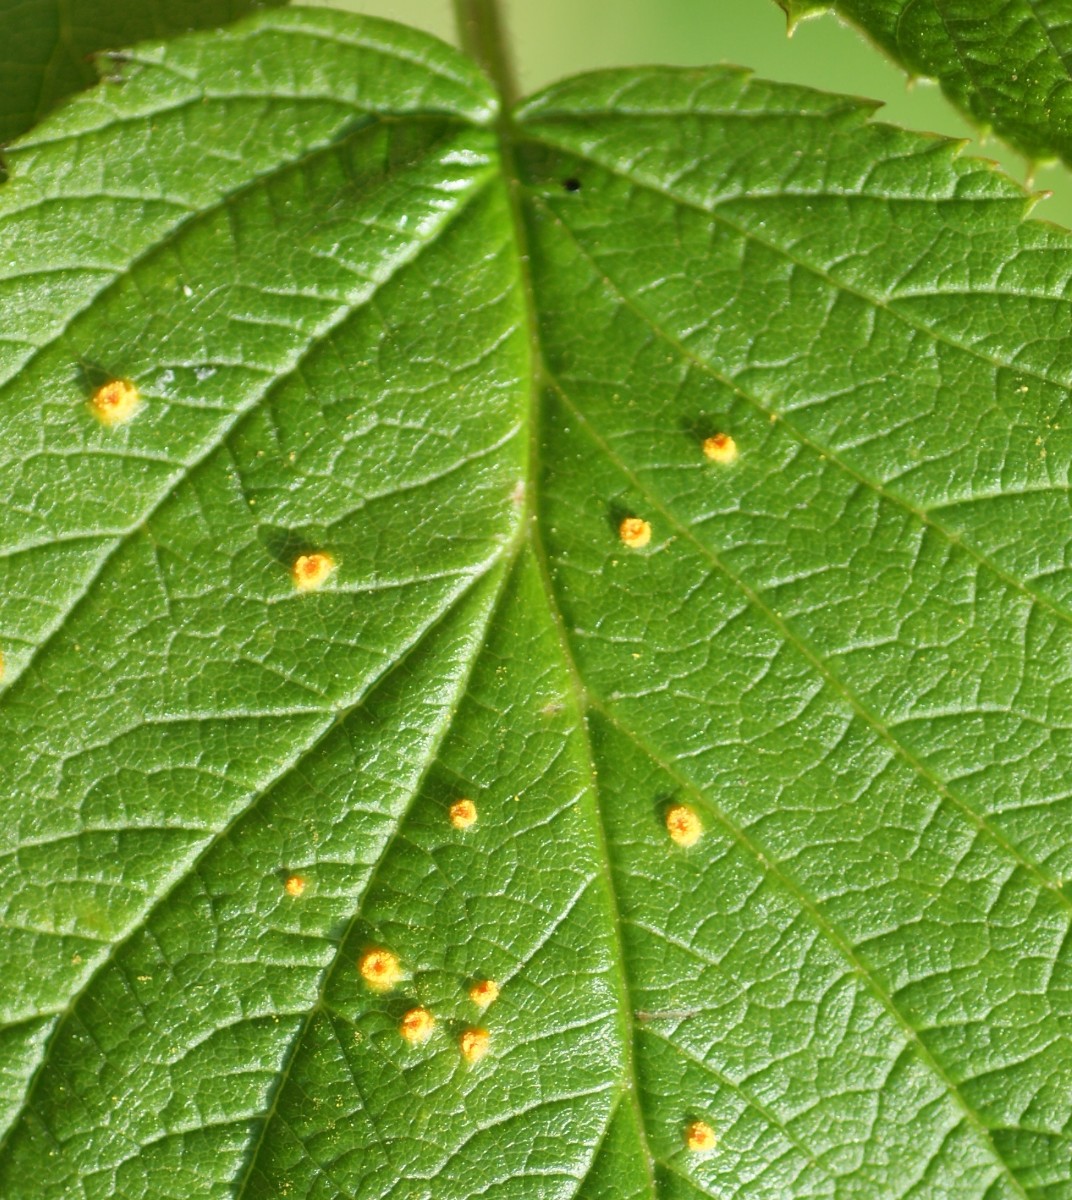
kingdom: Fungi
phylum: Basidiomycota
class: Pucciniomycetes
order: Pucciniales
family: Phragmidiaceae
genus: Phragmidium
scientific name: Phragmidium rubi-idaei
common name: hindbær-flercellerust
